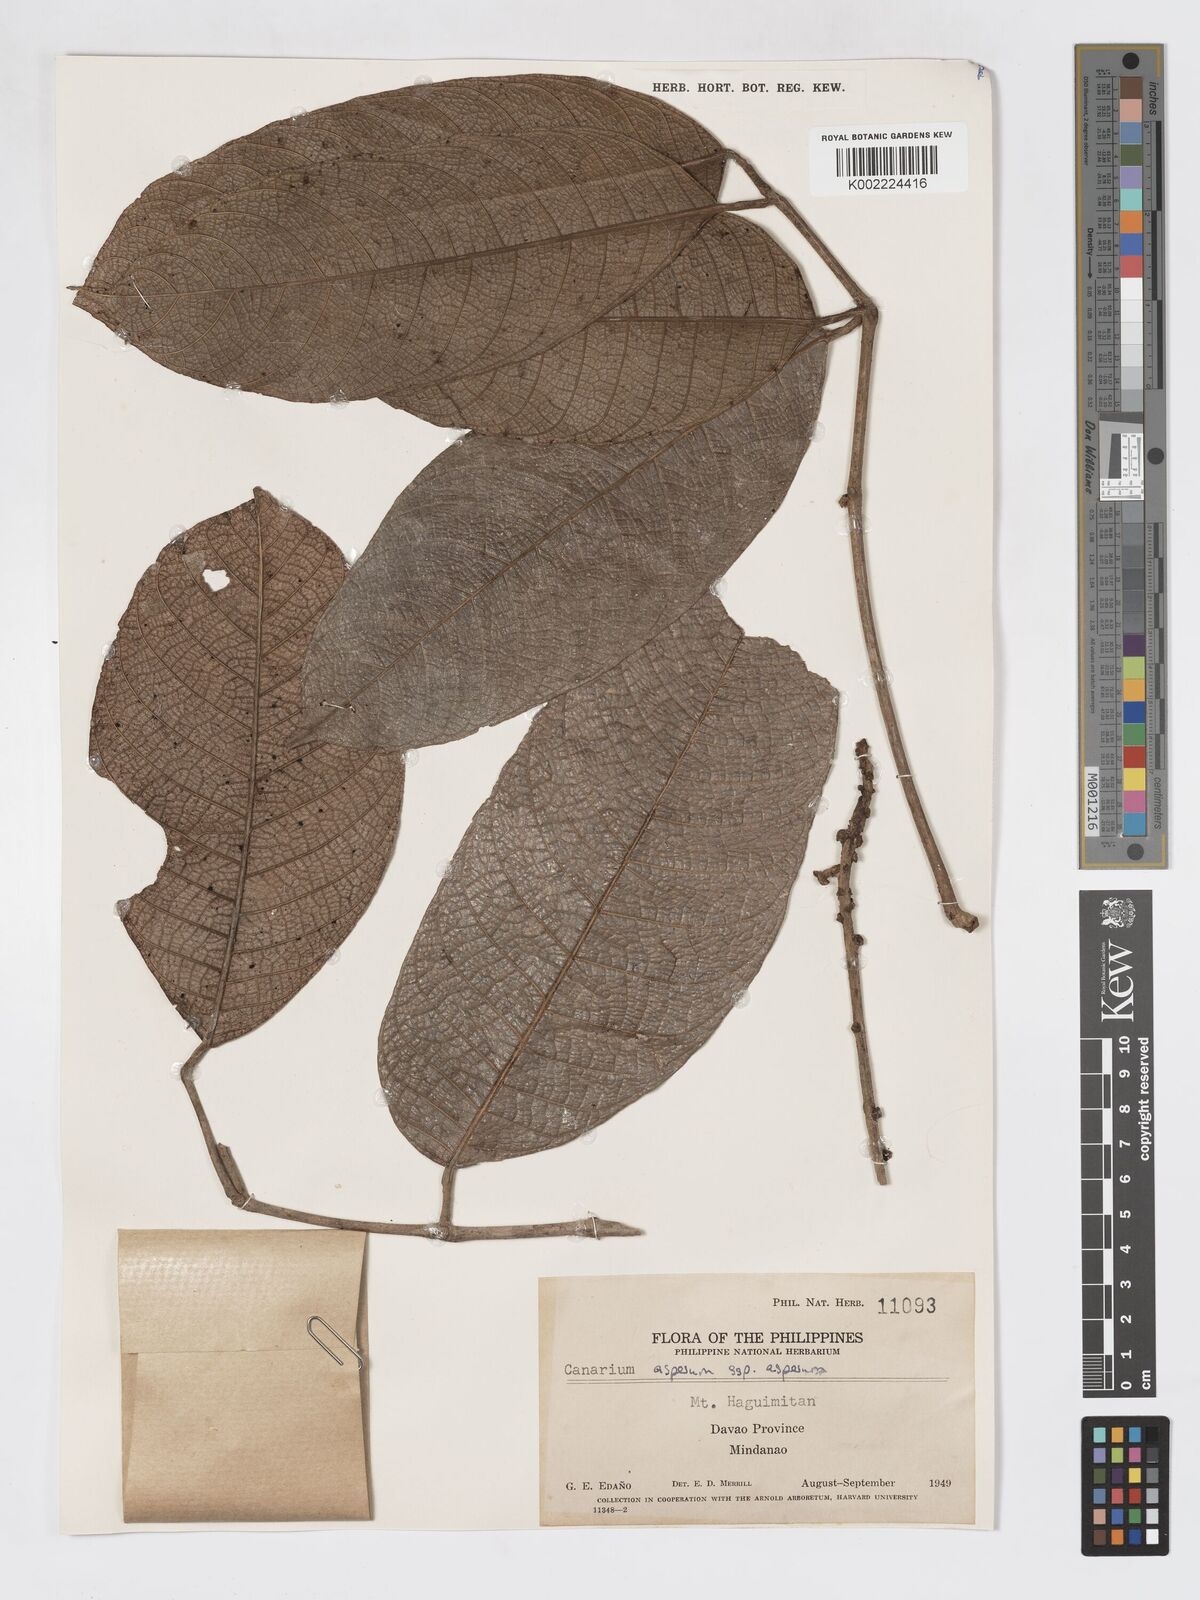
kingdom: Plantae
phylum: Tracheophyta
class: Magnoliopsida
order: Sapindales
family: Burseraceae
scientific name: Burseraceae
